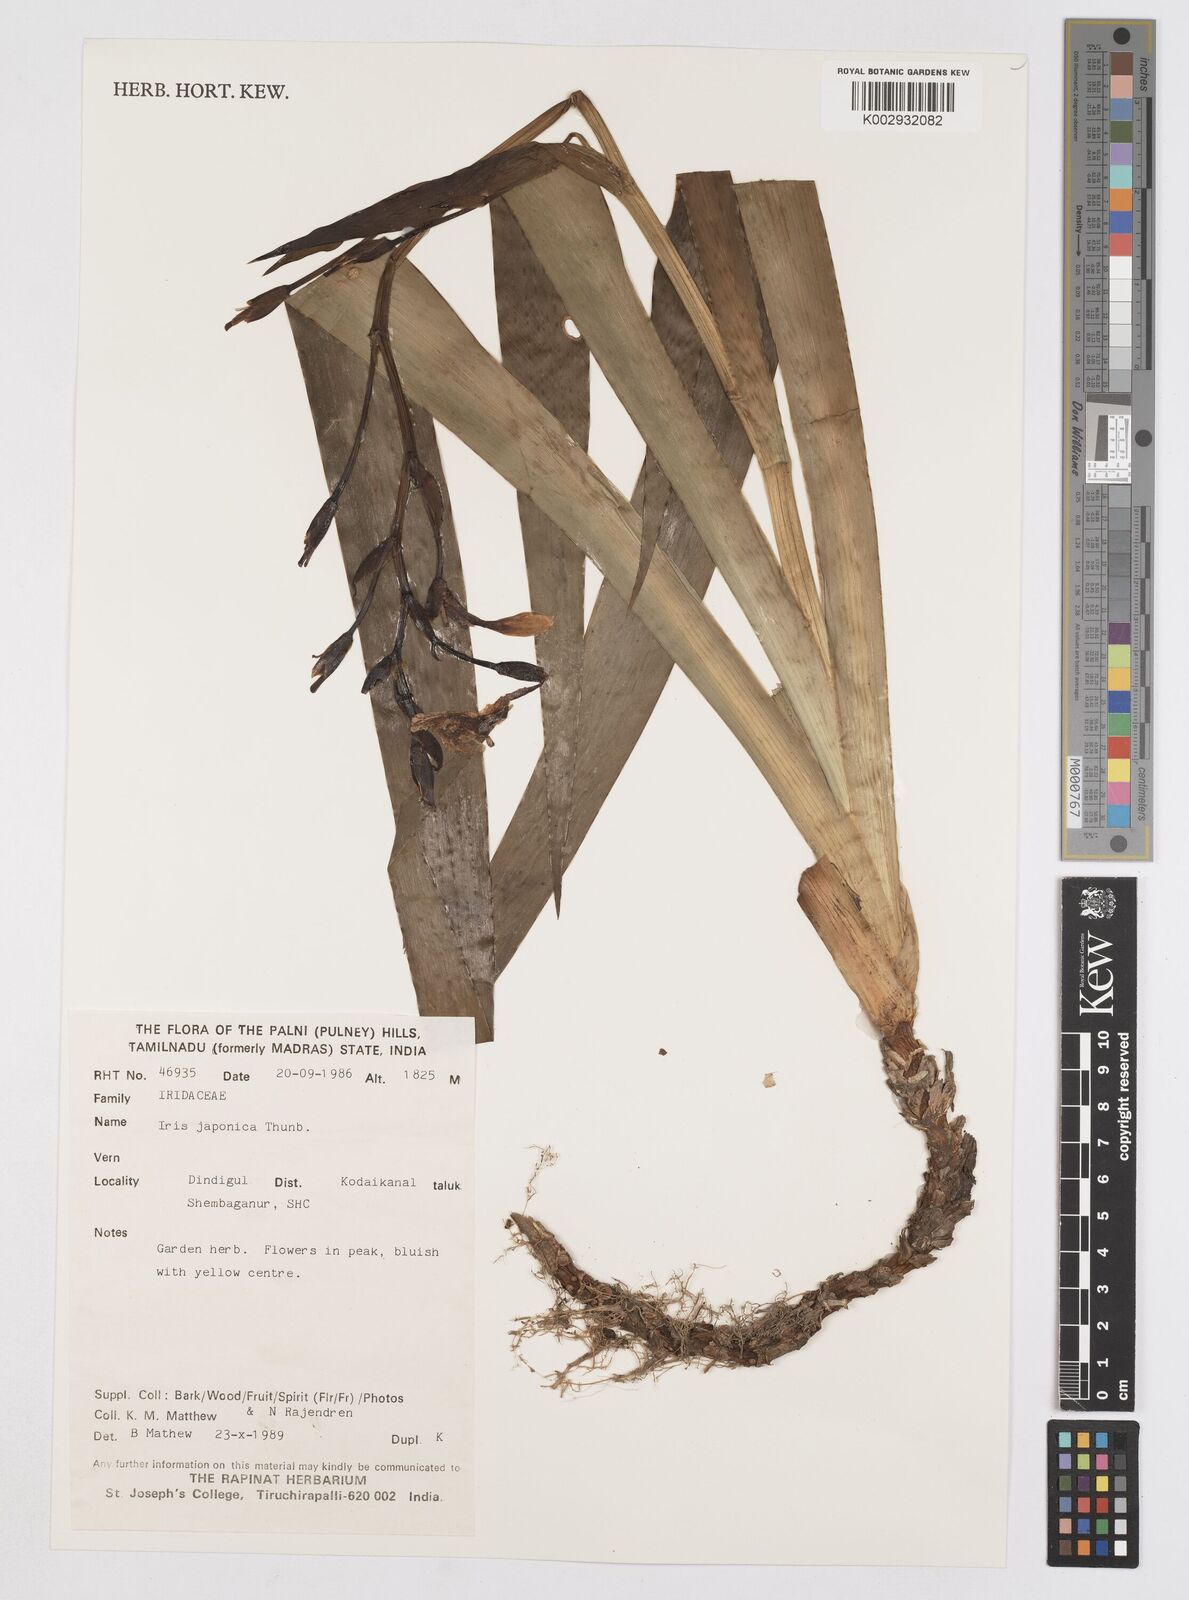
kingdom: Plantae
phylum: Tracheophyta
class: Liliopsida
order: Asparagales
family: Iridaceae
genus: Iris
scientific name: Iris japonica
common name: Butterfly-flower
